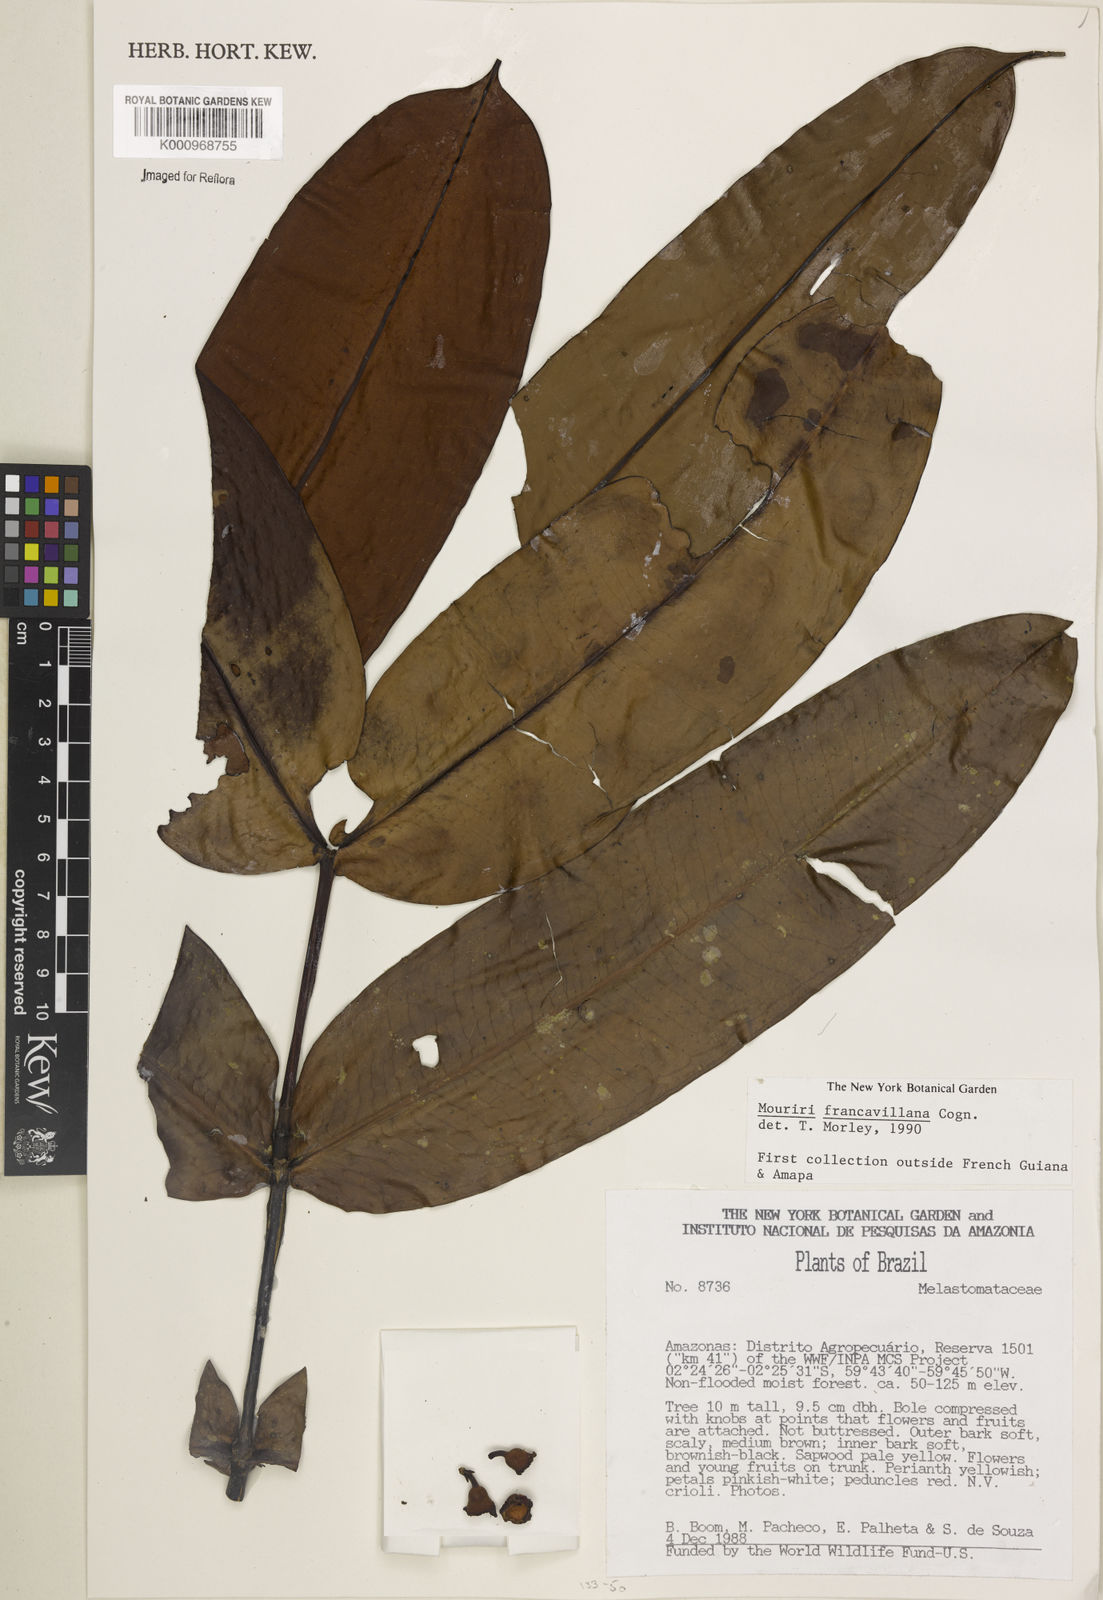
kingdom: Plantae
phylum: Tracheophyta
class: Magnoliopsida
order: Myrtales
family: Melastomataceae
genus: Mouriri
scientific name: Mouriri francavillana
